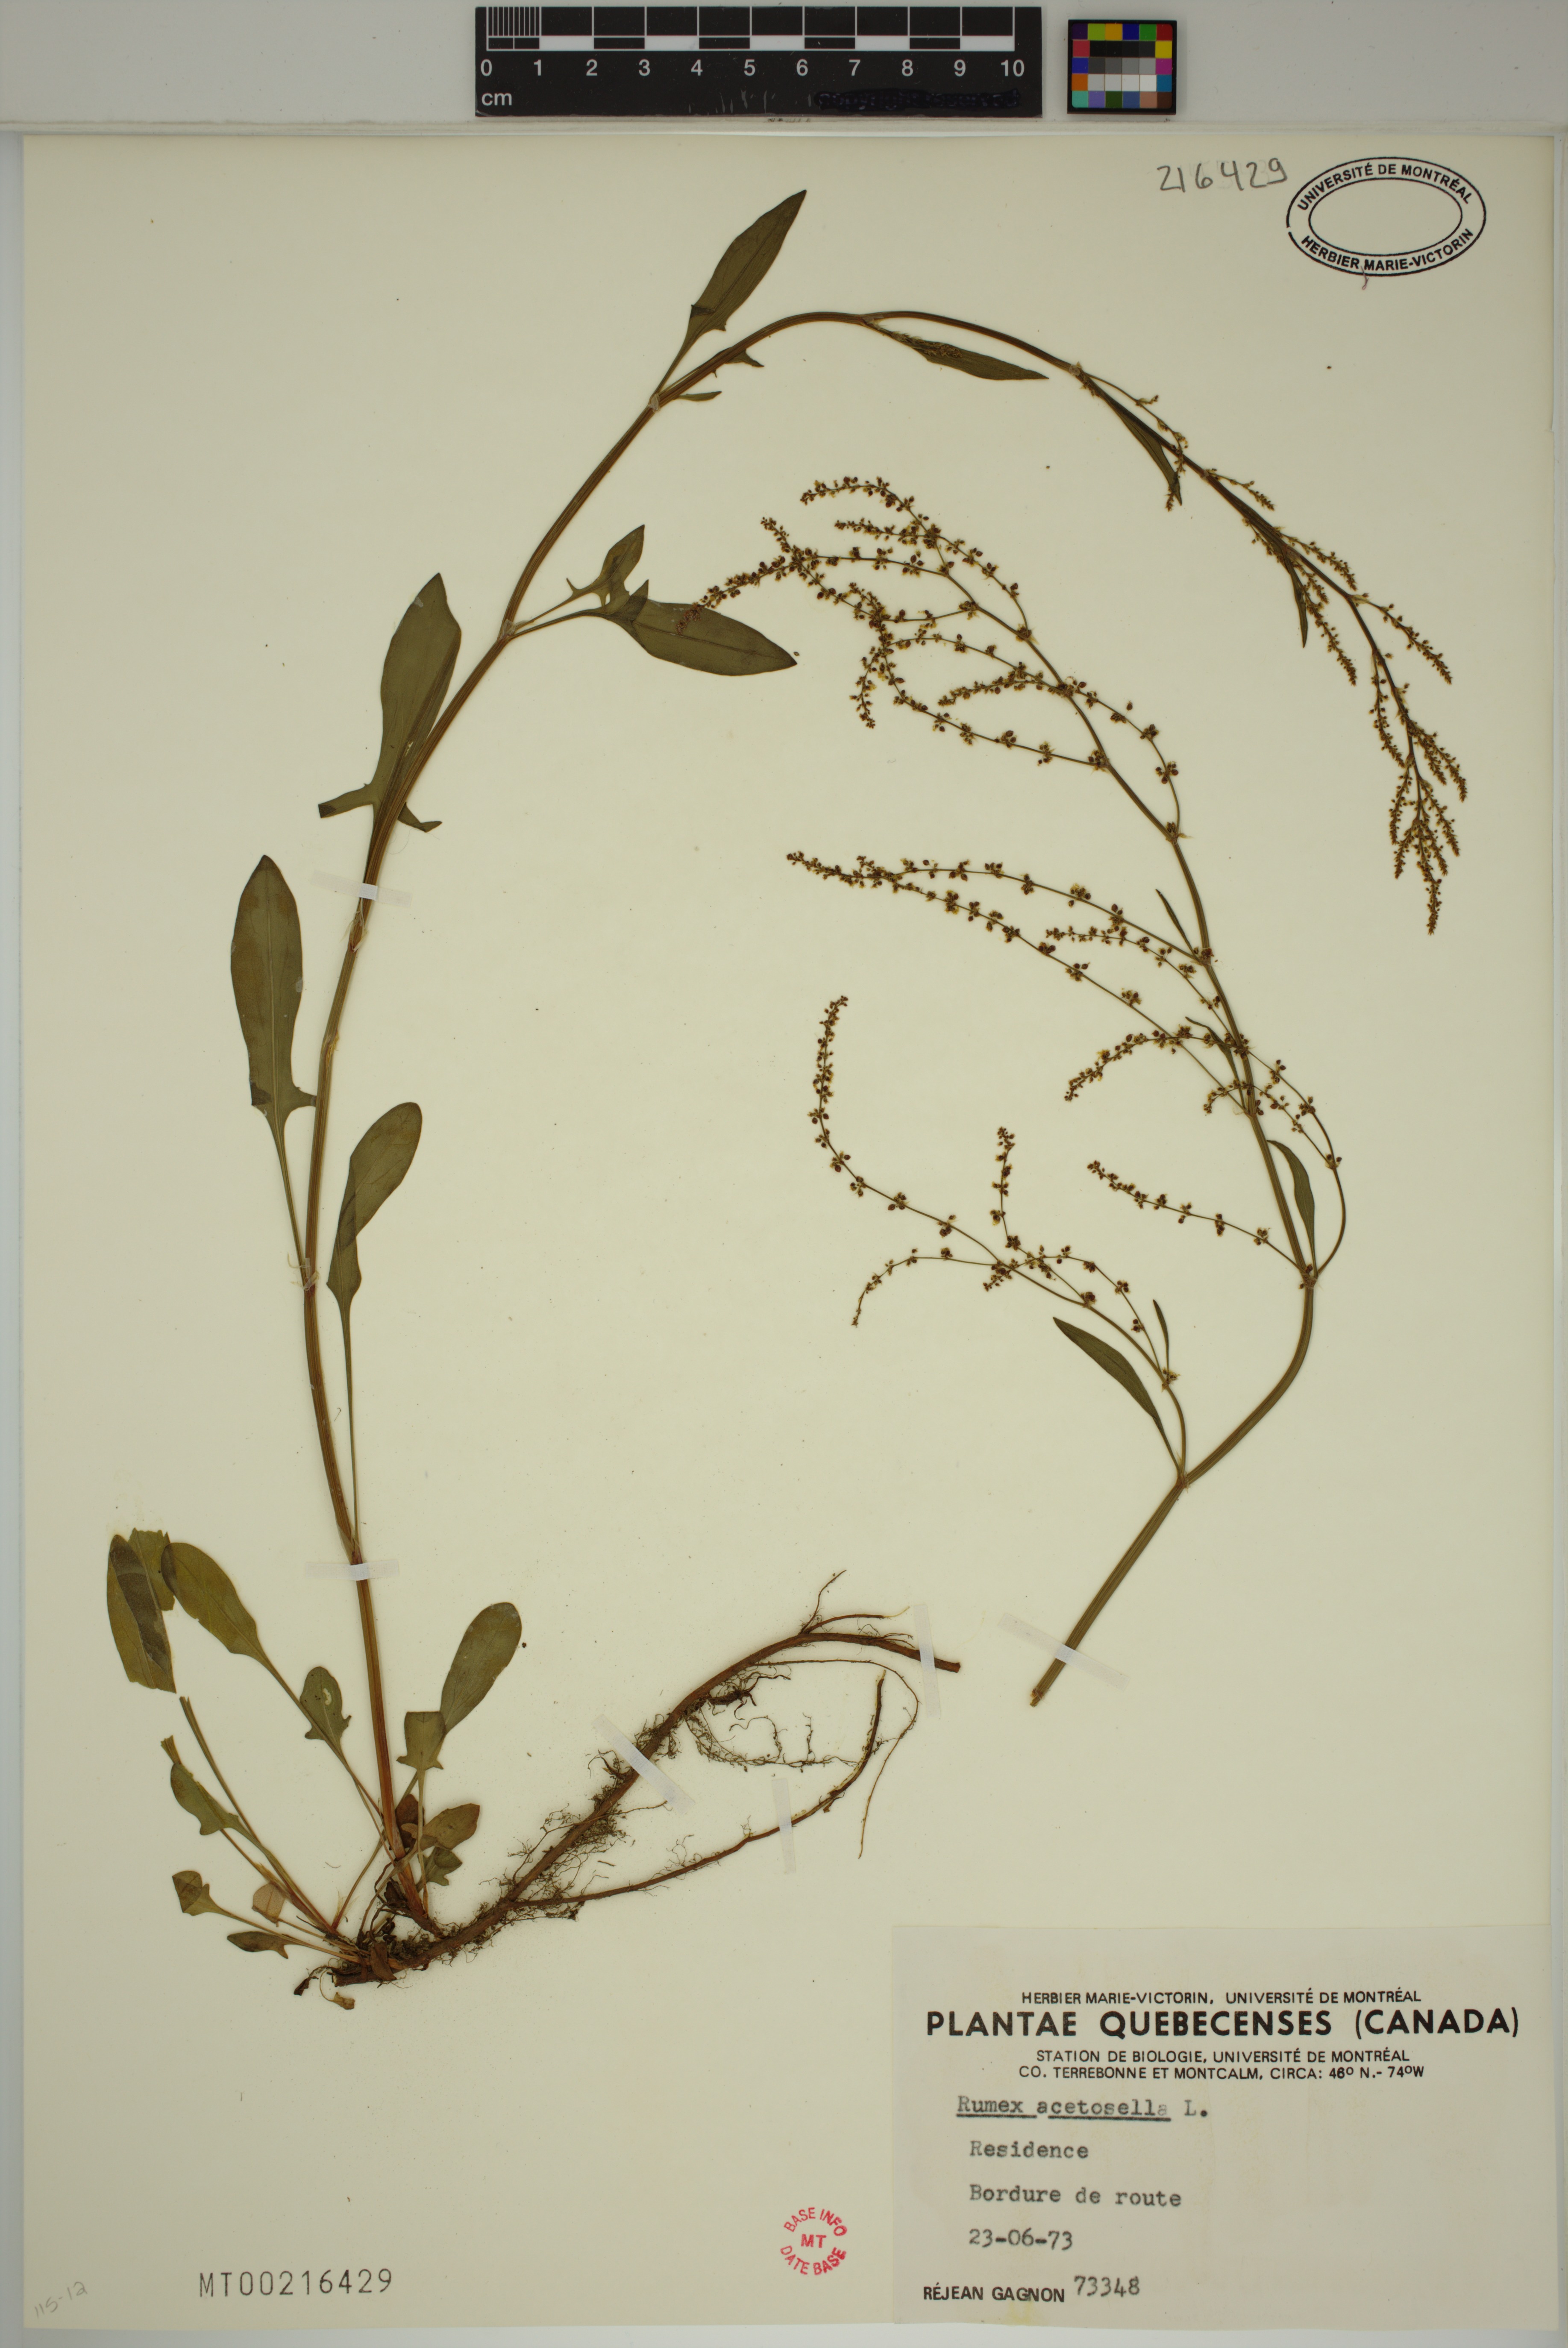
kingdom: Plantae
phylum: Tracheophyta
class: Magnoliopsida
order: Caryophyllales
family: Polygonaceae
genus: Rumex
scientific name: Rumex acetosella
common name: Common sheep sorrel
